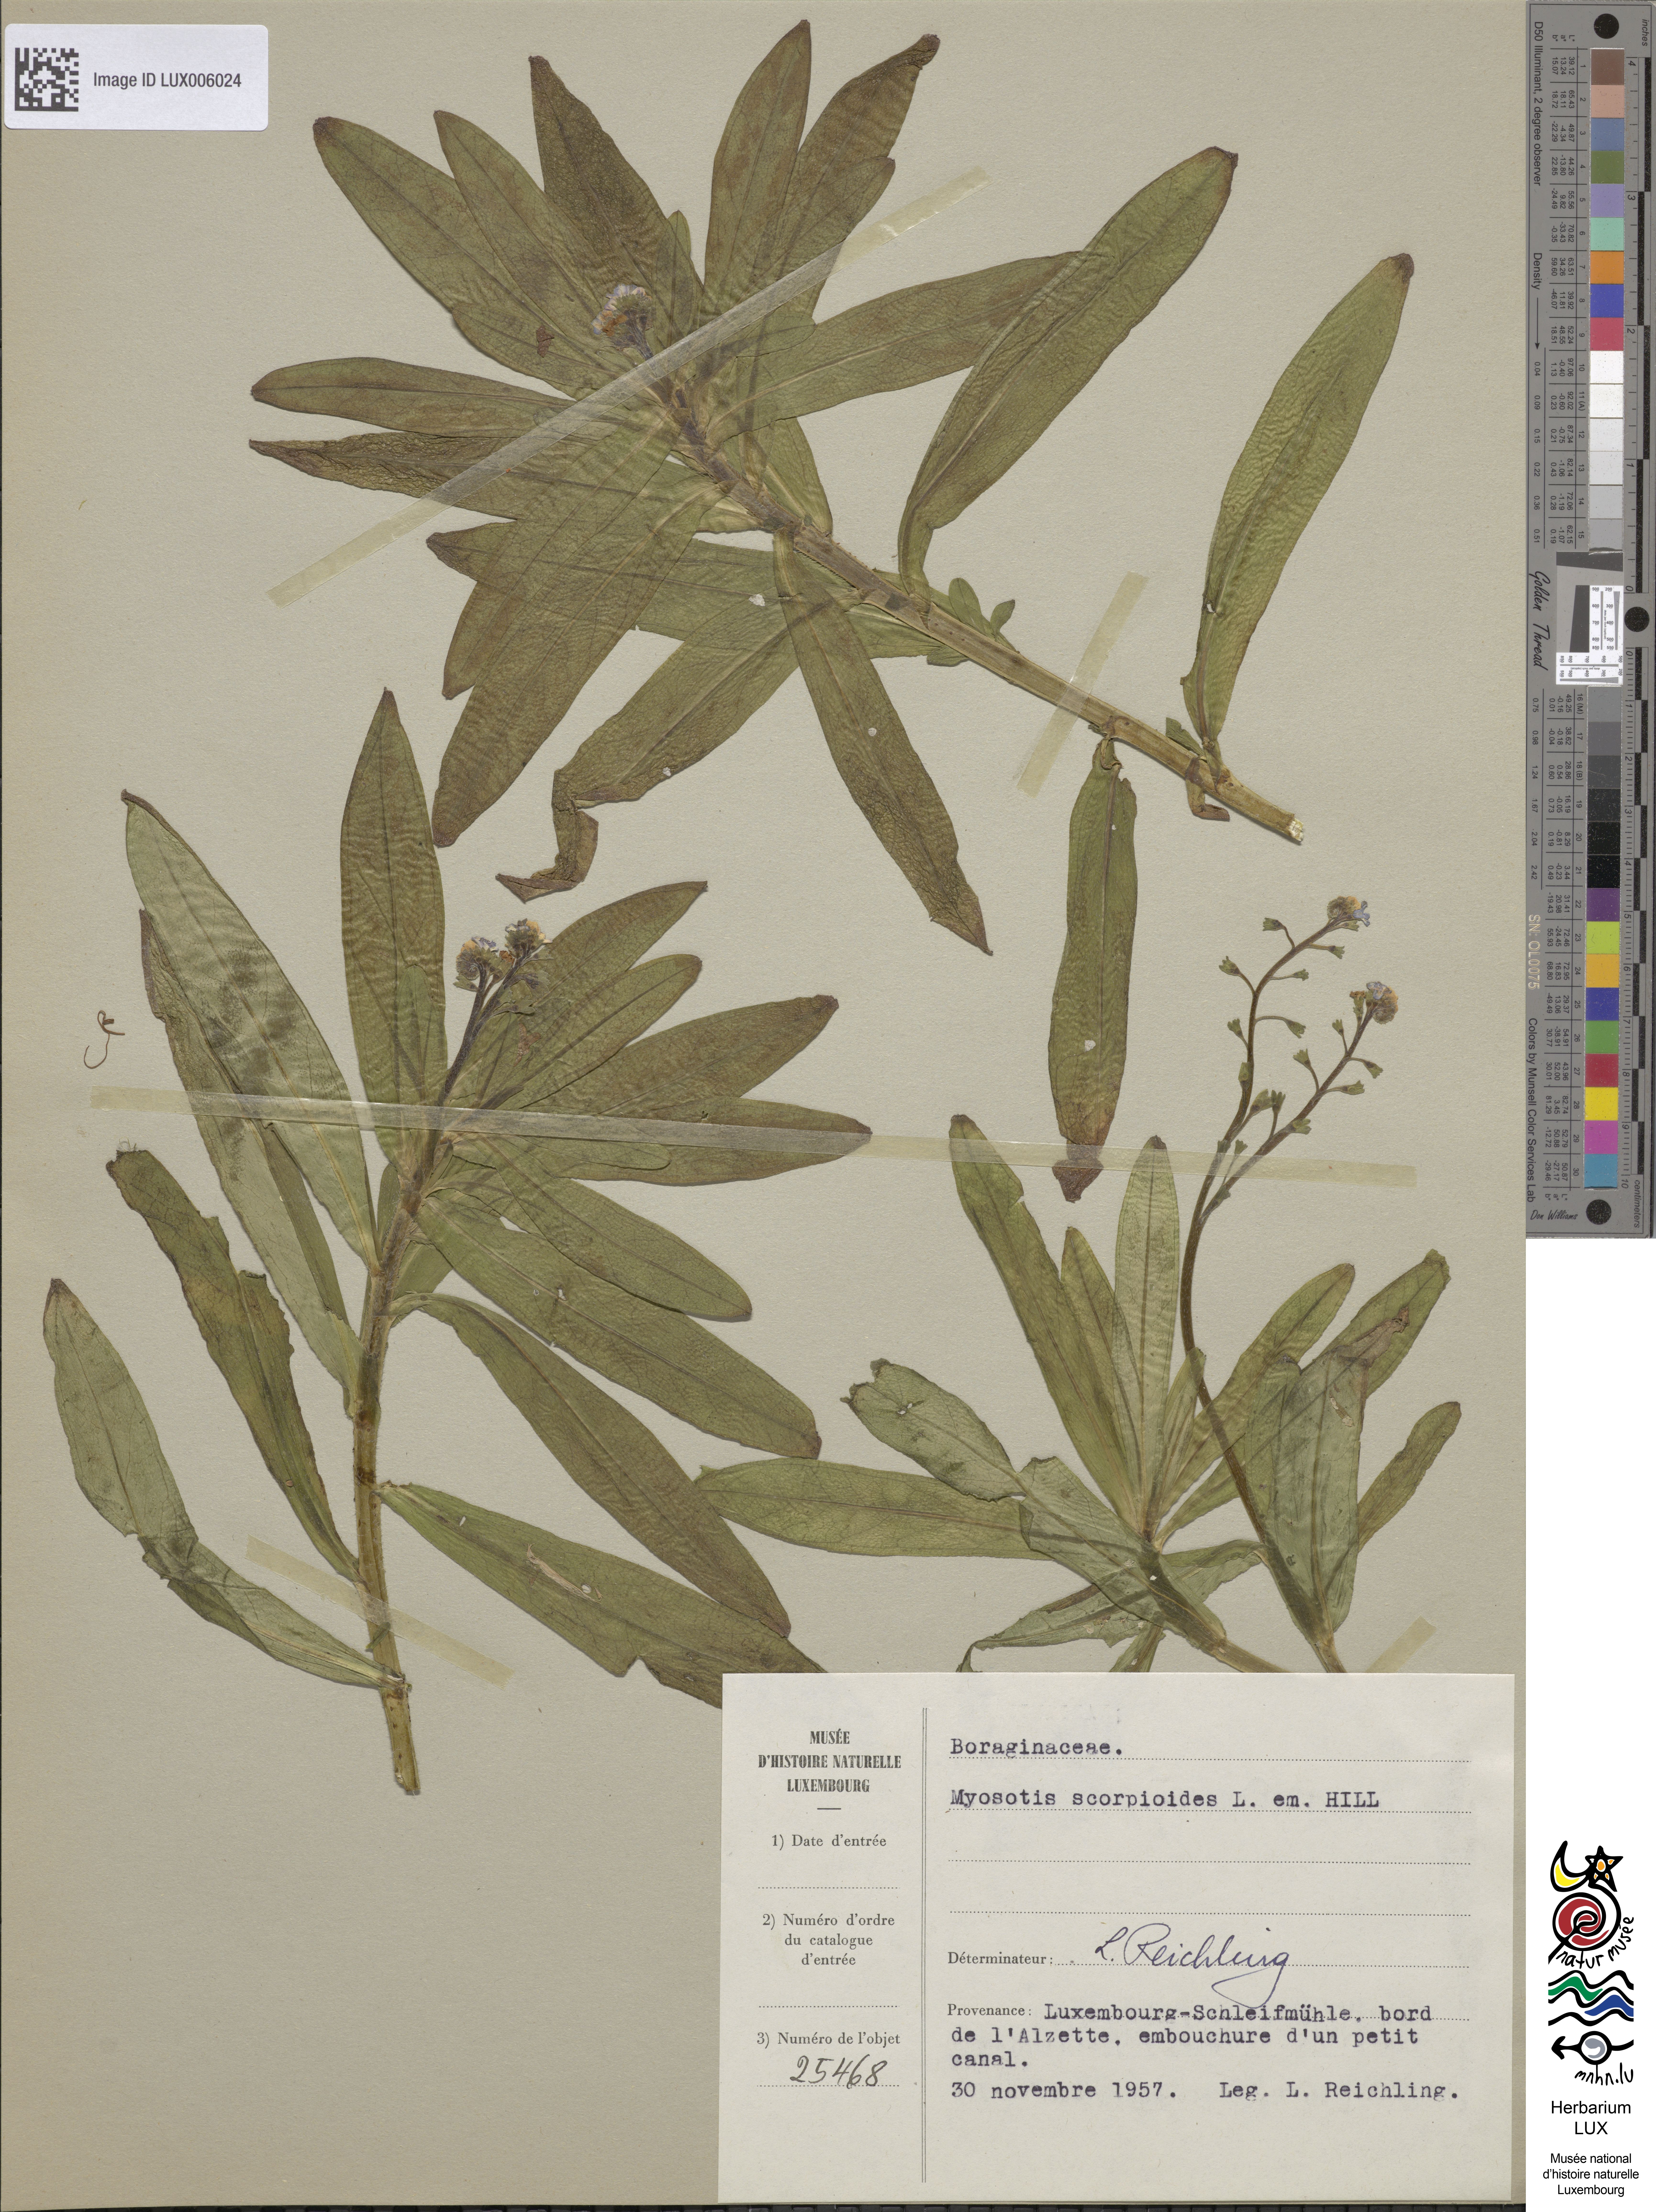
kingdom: Plantae
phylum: Tracheophyta
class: Magnoliopsida
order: Boraginales
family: Boraginaceae
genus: Myosotis
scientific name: Myosotis scorpioides
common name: Water forget-me-not
